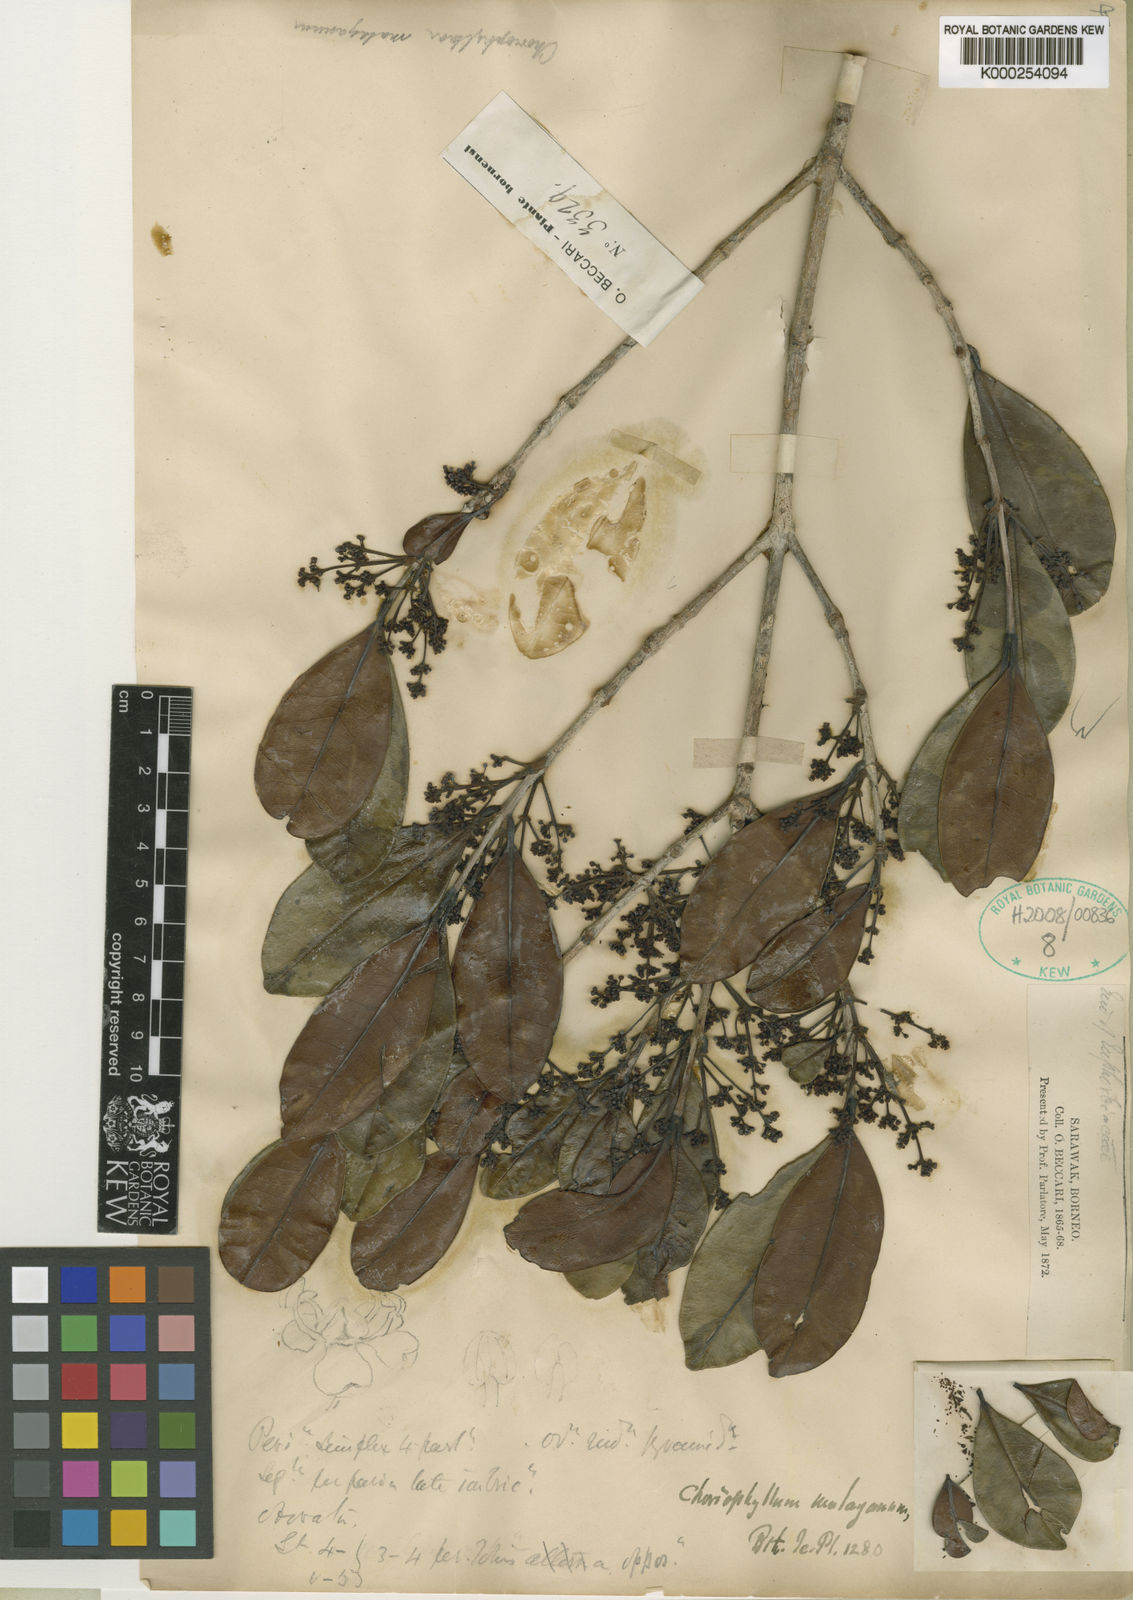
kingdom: Plantae
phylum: Tracheophyta
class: Magnoliopsida
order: Malpighiales
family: Picrodendraceae
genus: Austrobuxus
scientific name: Austrobuxus nitidus
